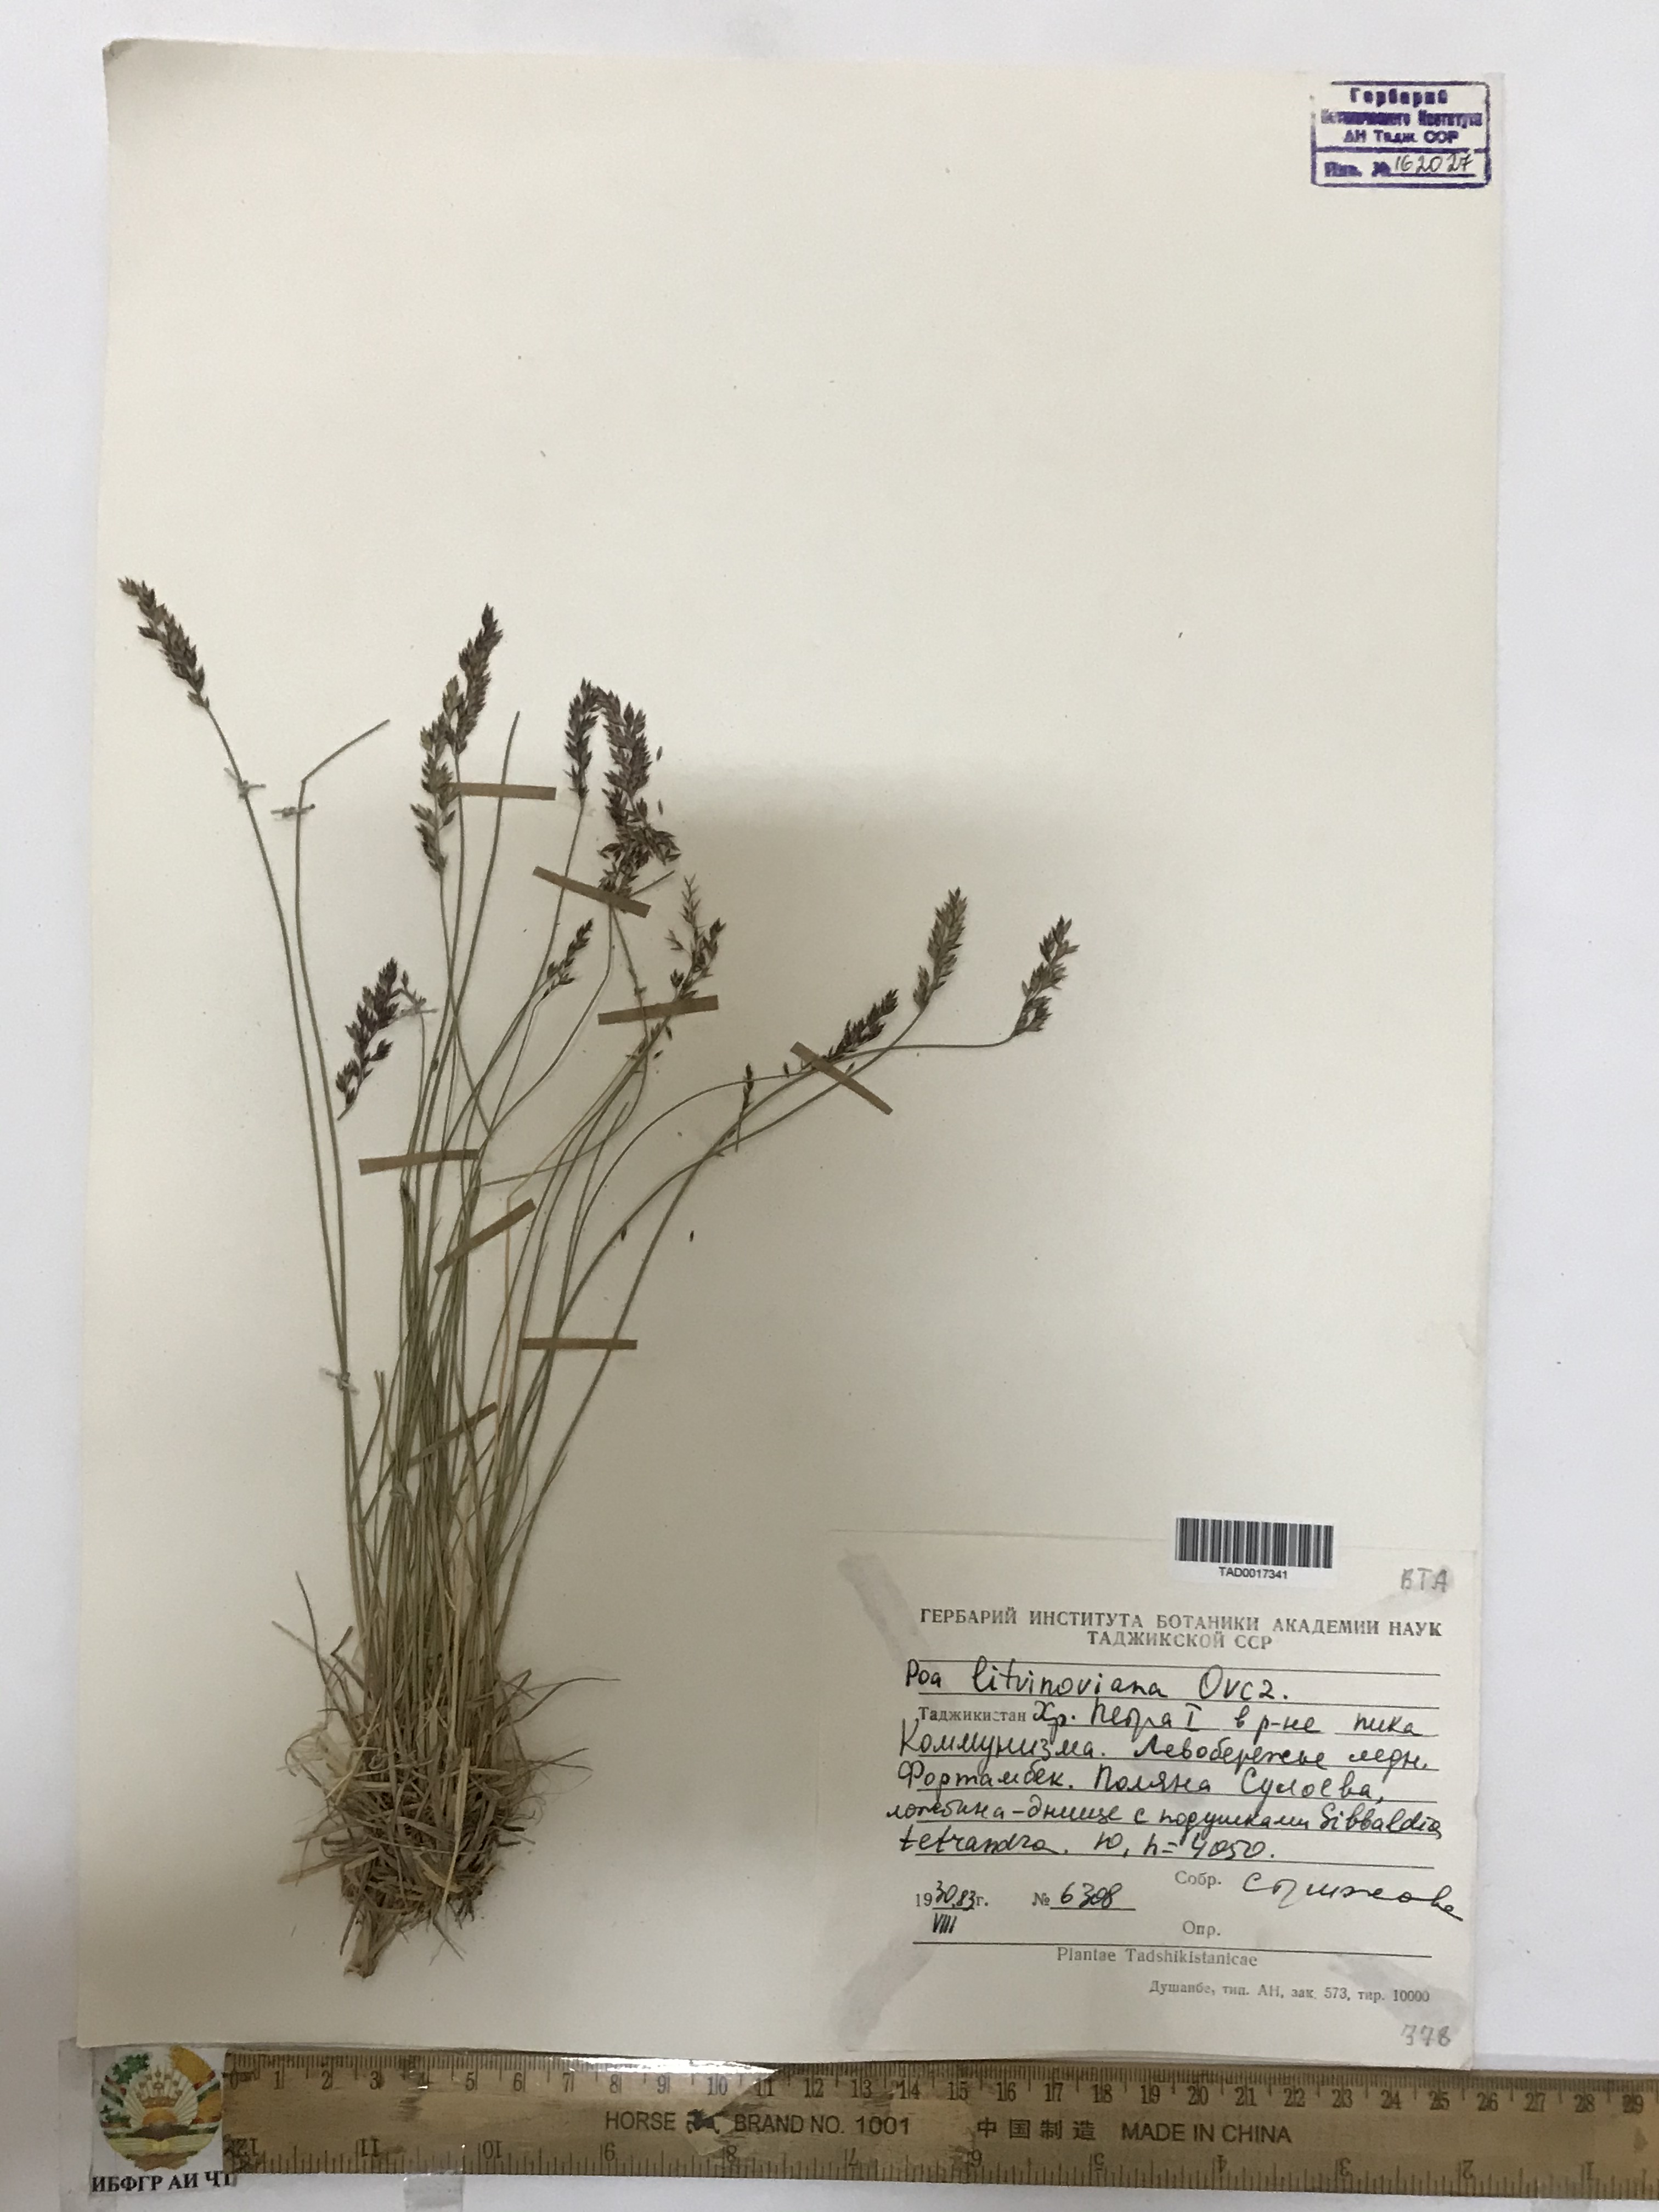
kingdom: Plantae
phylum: Tracheophyta
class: Liliopsida
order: Poales
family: Poaceae
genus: Poa
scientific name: Poa glauca
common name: Glaucous bluegrass
